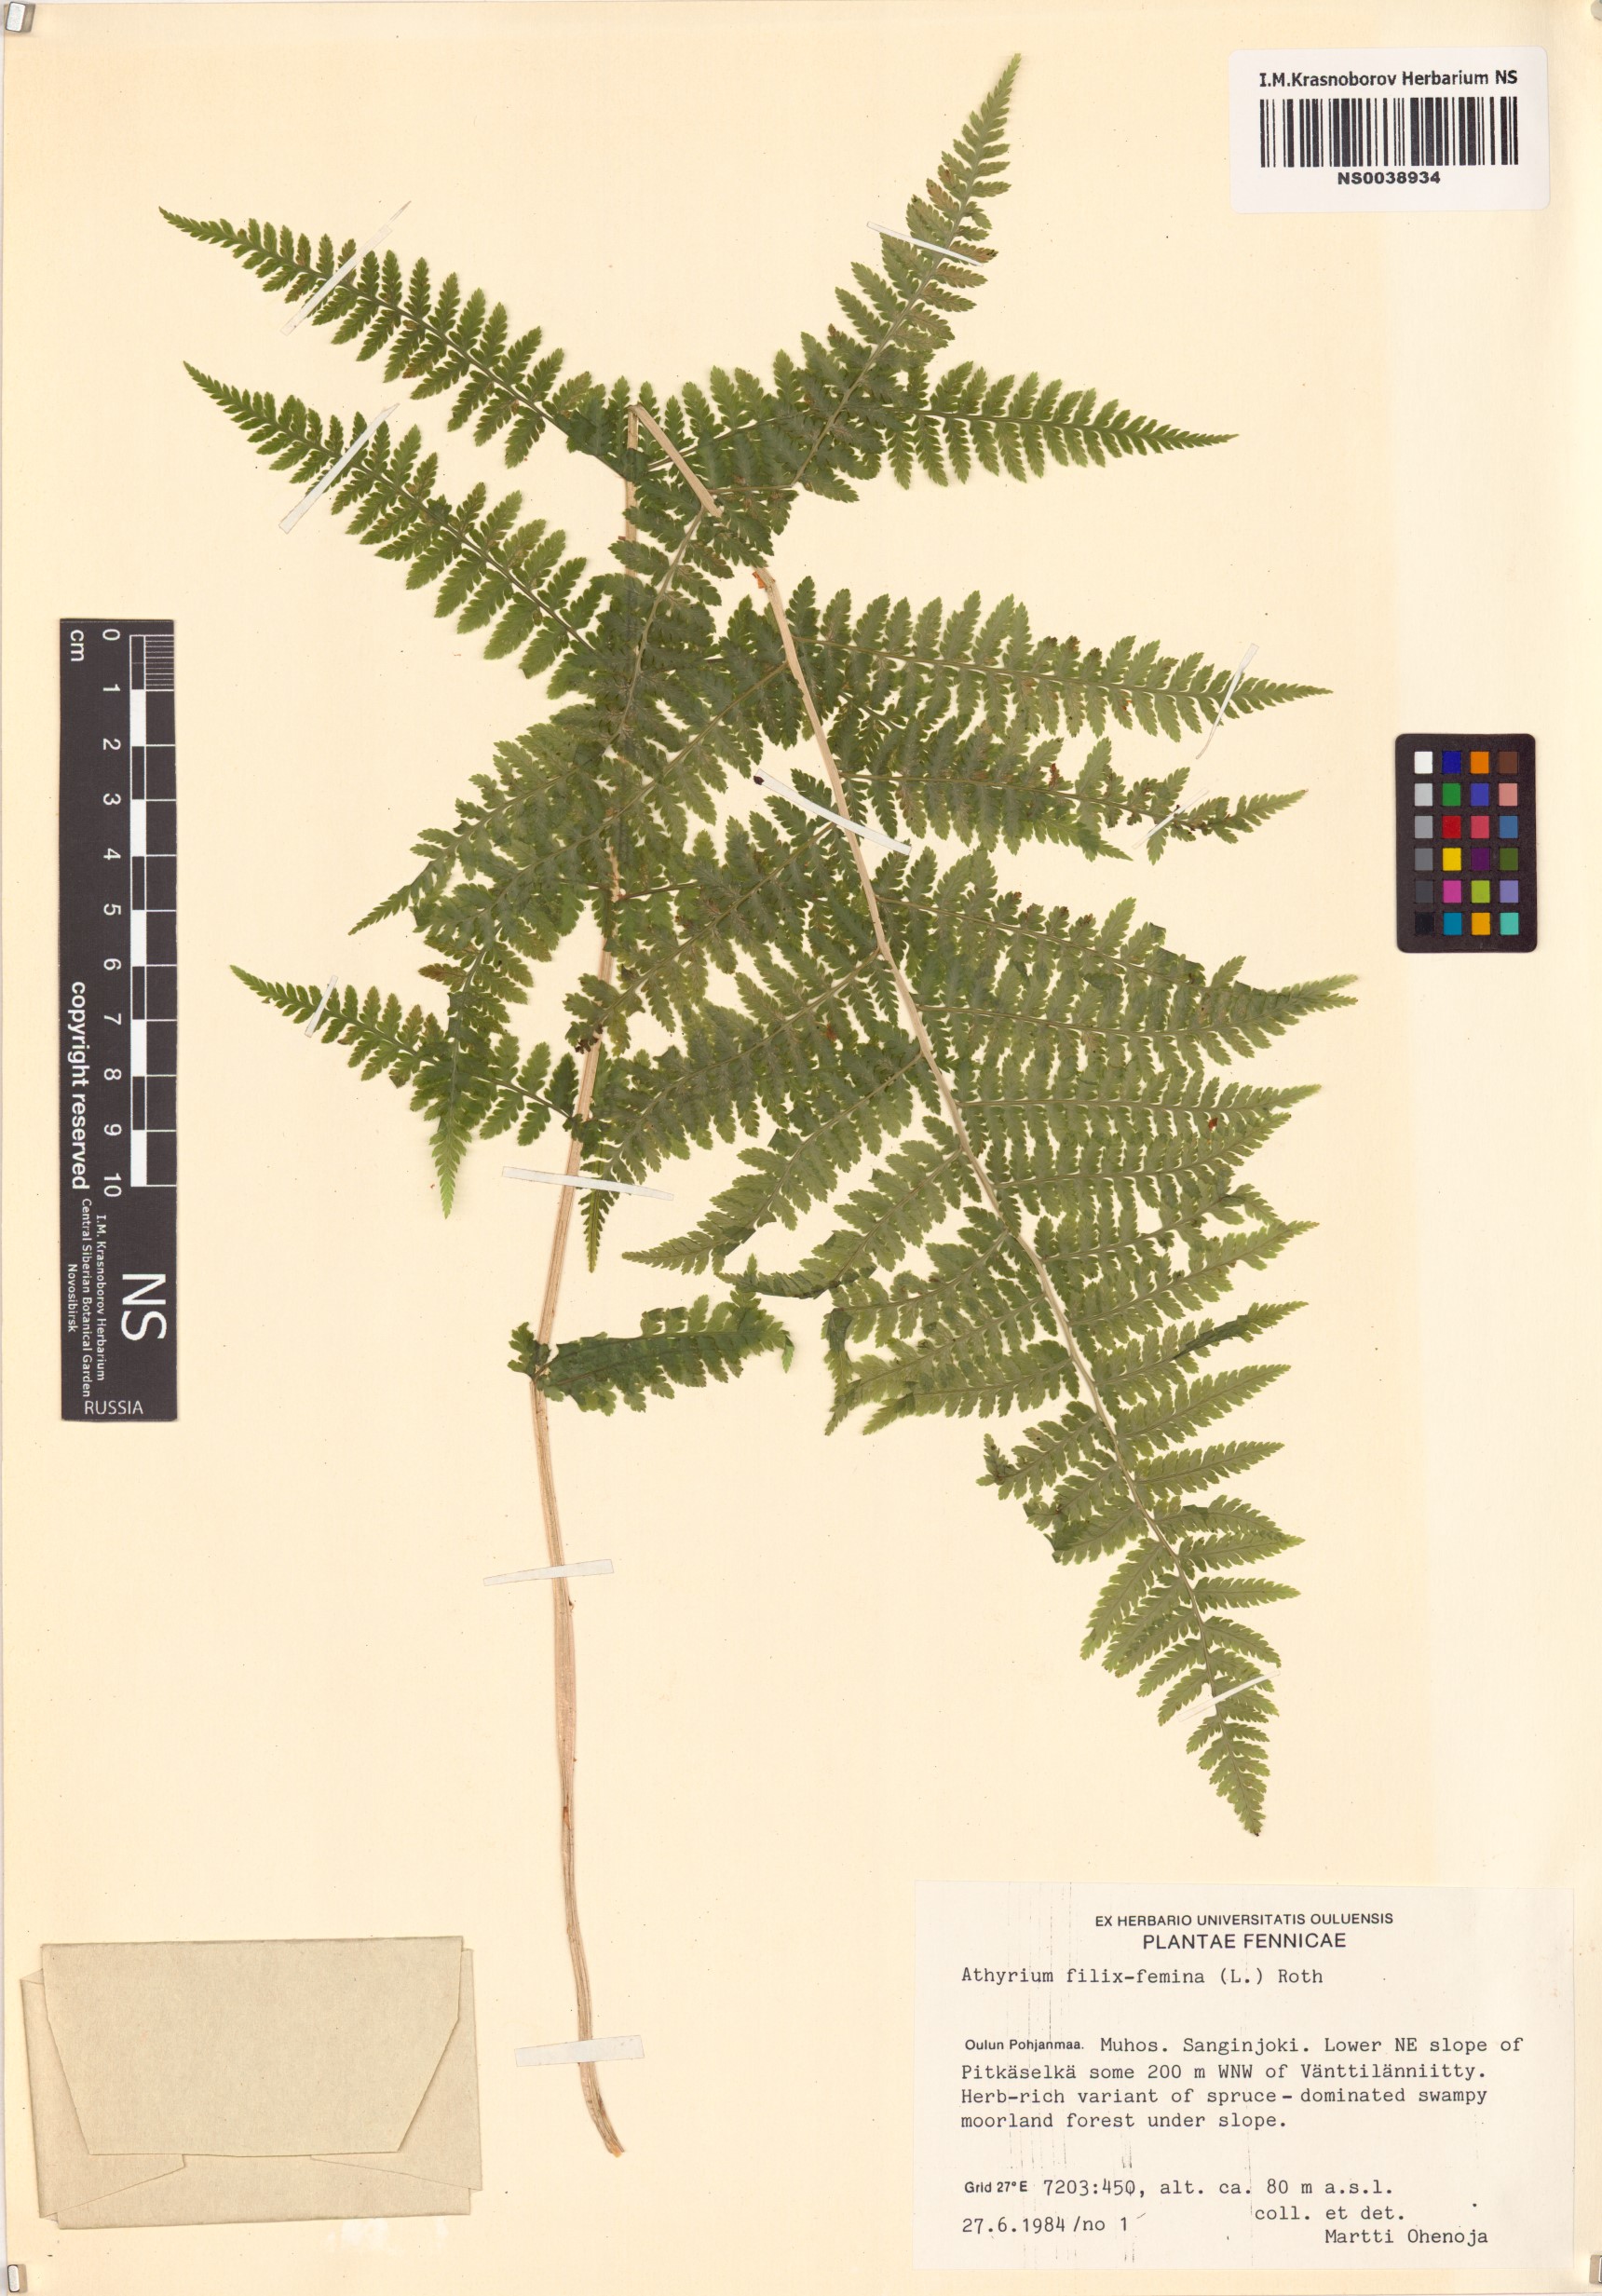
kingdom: Plantae
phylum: Tracheophyta
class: Polypodiopsida
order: Polypodiales
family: Athyriaceae
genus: Athyrium
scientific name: Athyrium filix-femina
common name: Lady fern
